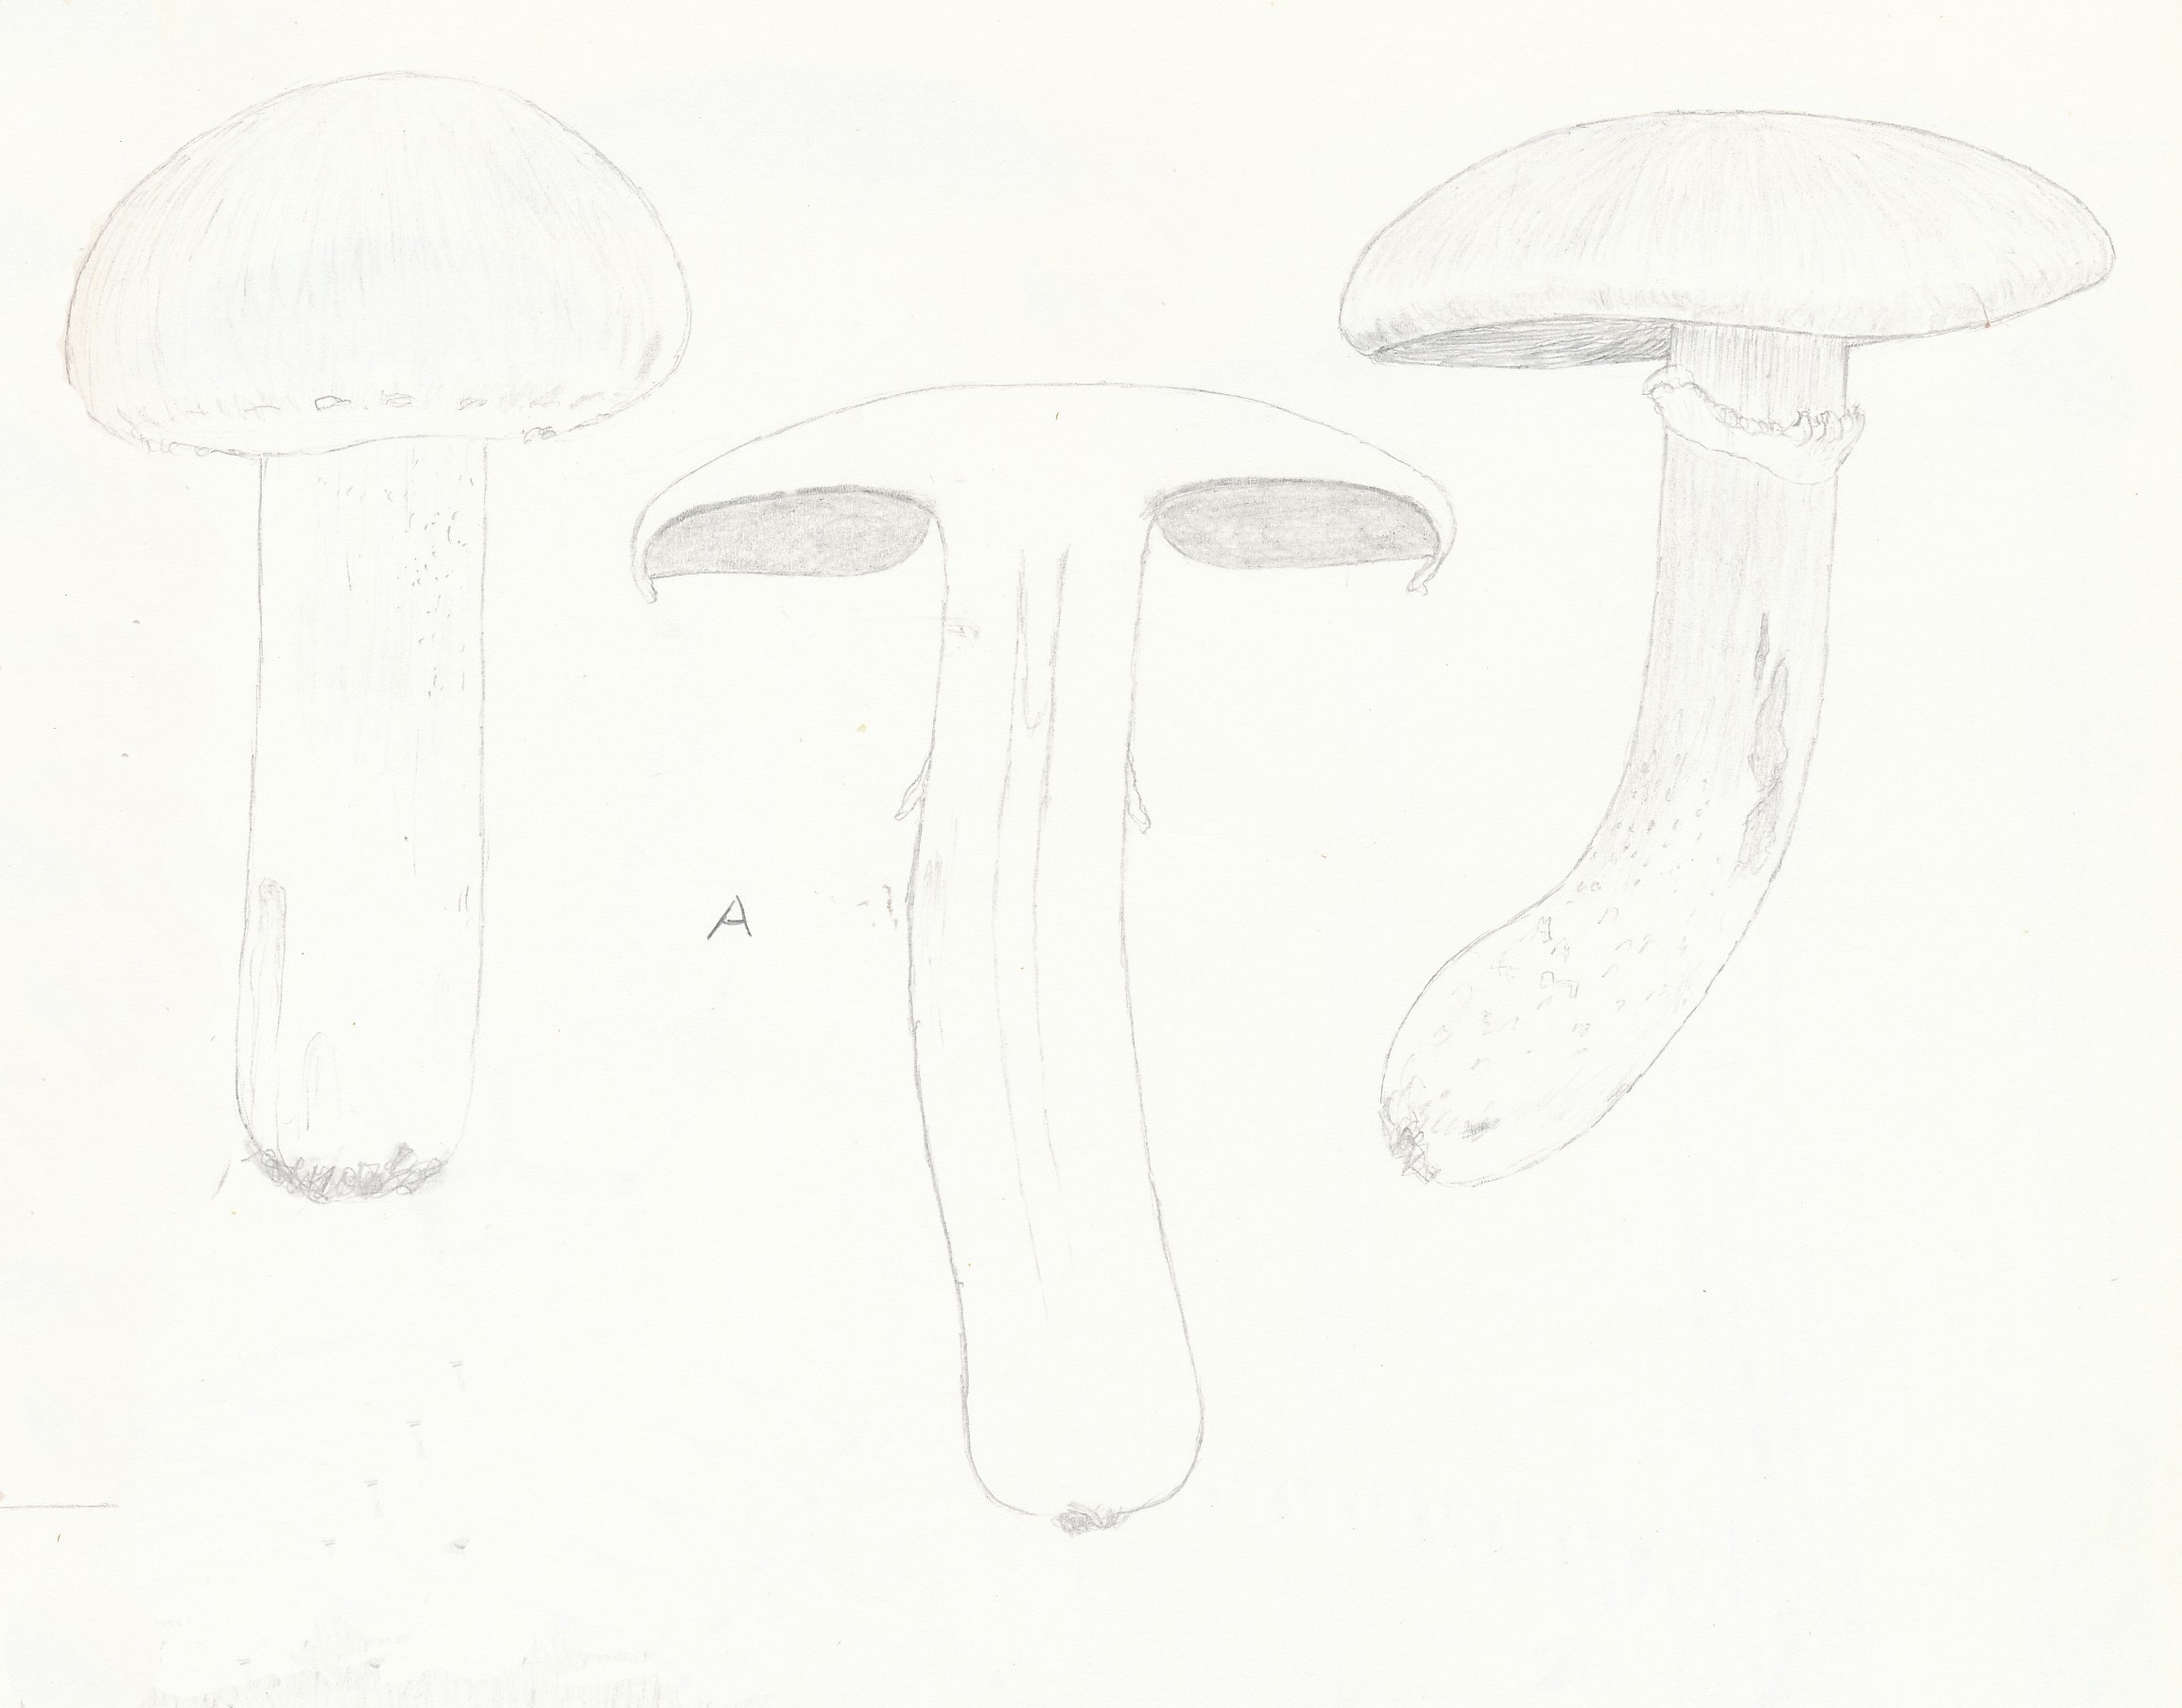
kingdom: Fungi
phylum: Basidiomycota
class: Agaricomycetes
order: Agaricales
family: Agaricaceae
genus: Agaricus
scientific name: Agaricus altipes
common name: sommer-champignon
